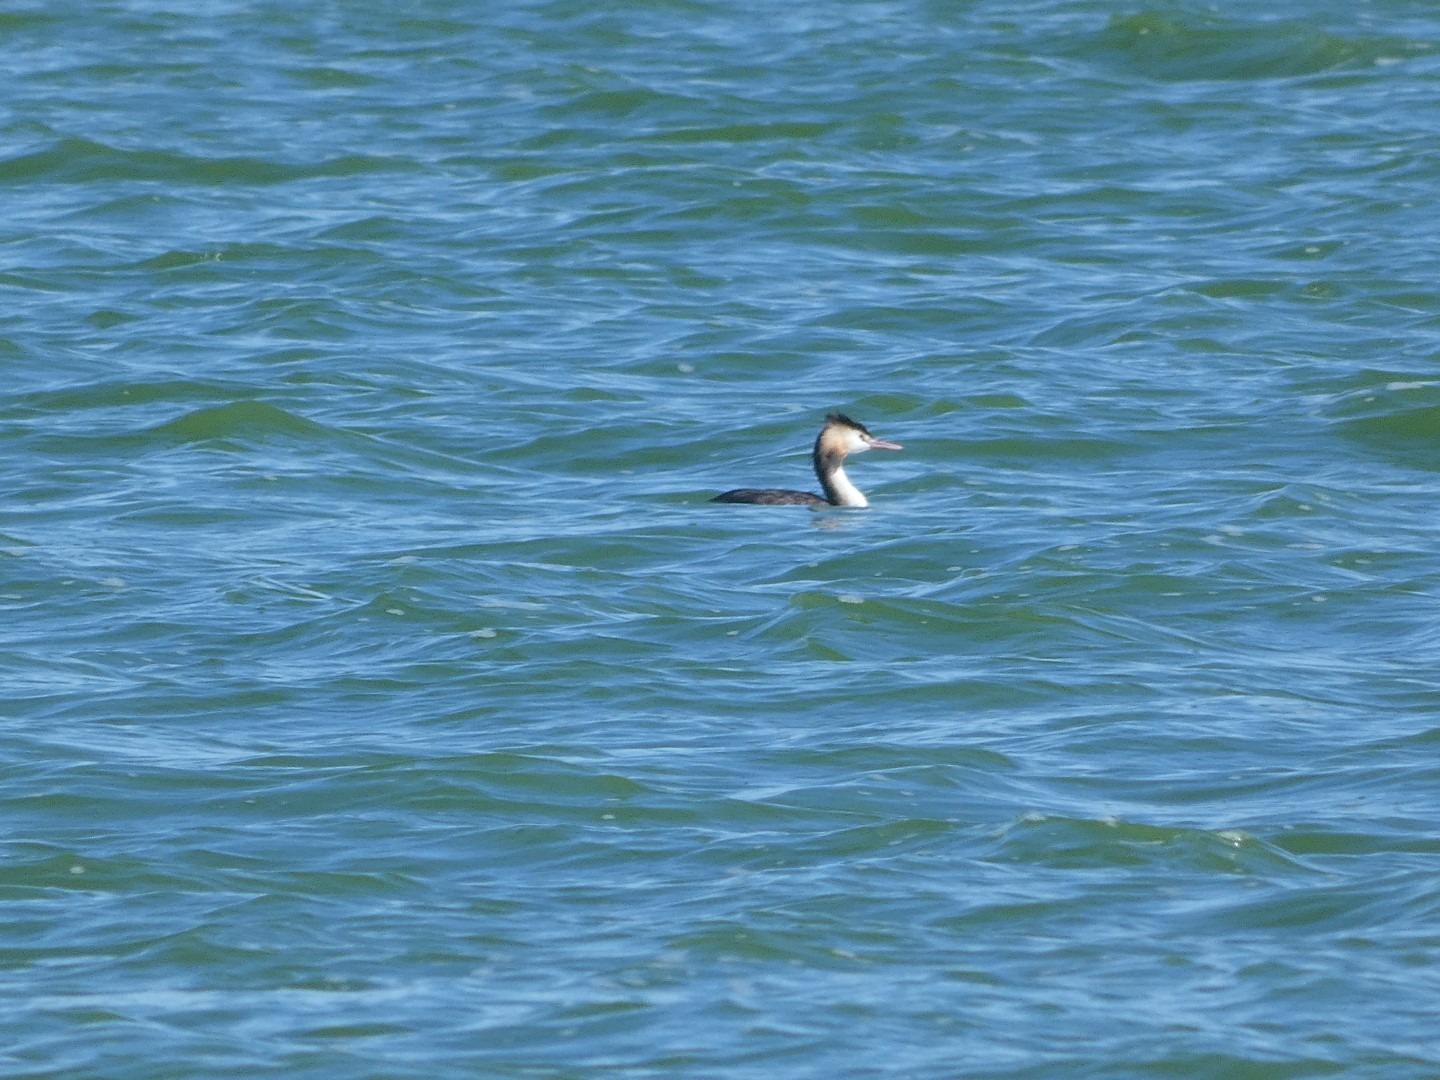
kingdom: Animalia
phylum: Chordata
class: Aves
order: Podicipediformes
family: Podicipedidae
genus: Podiceps
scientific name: Podiceps cristatus
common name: Toppet lappedykker
